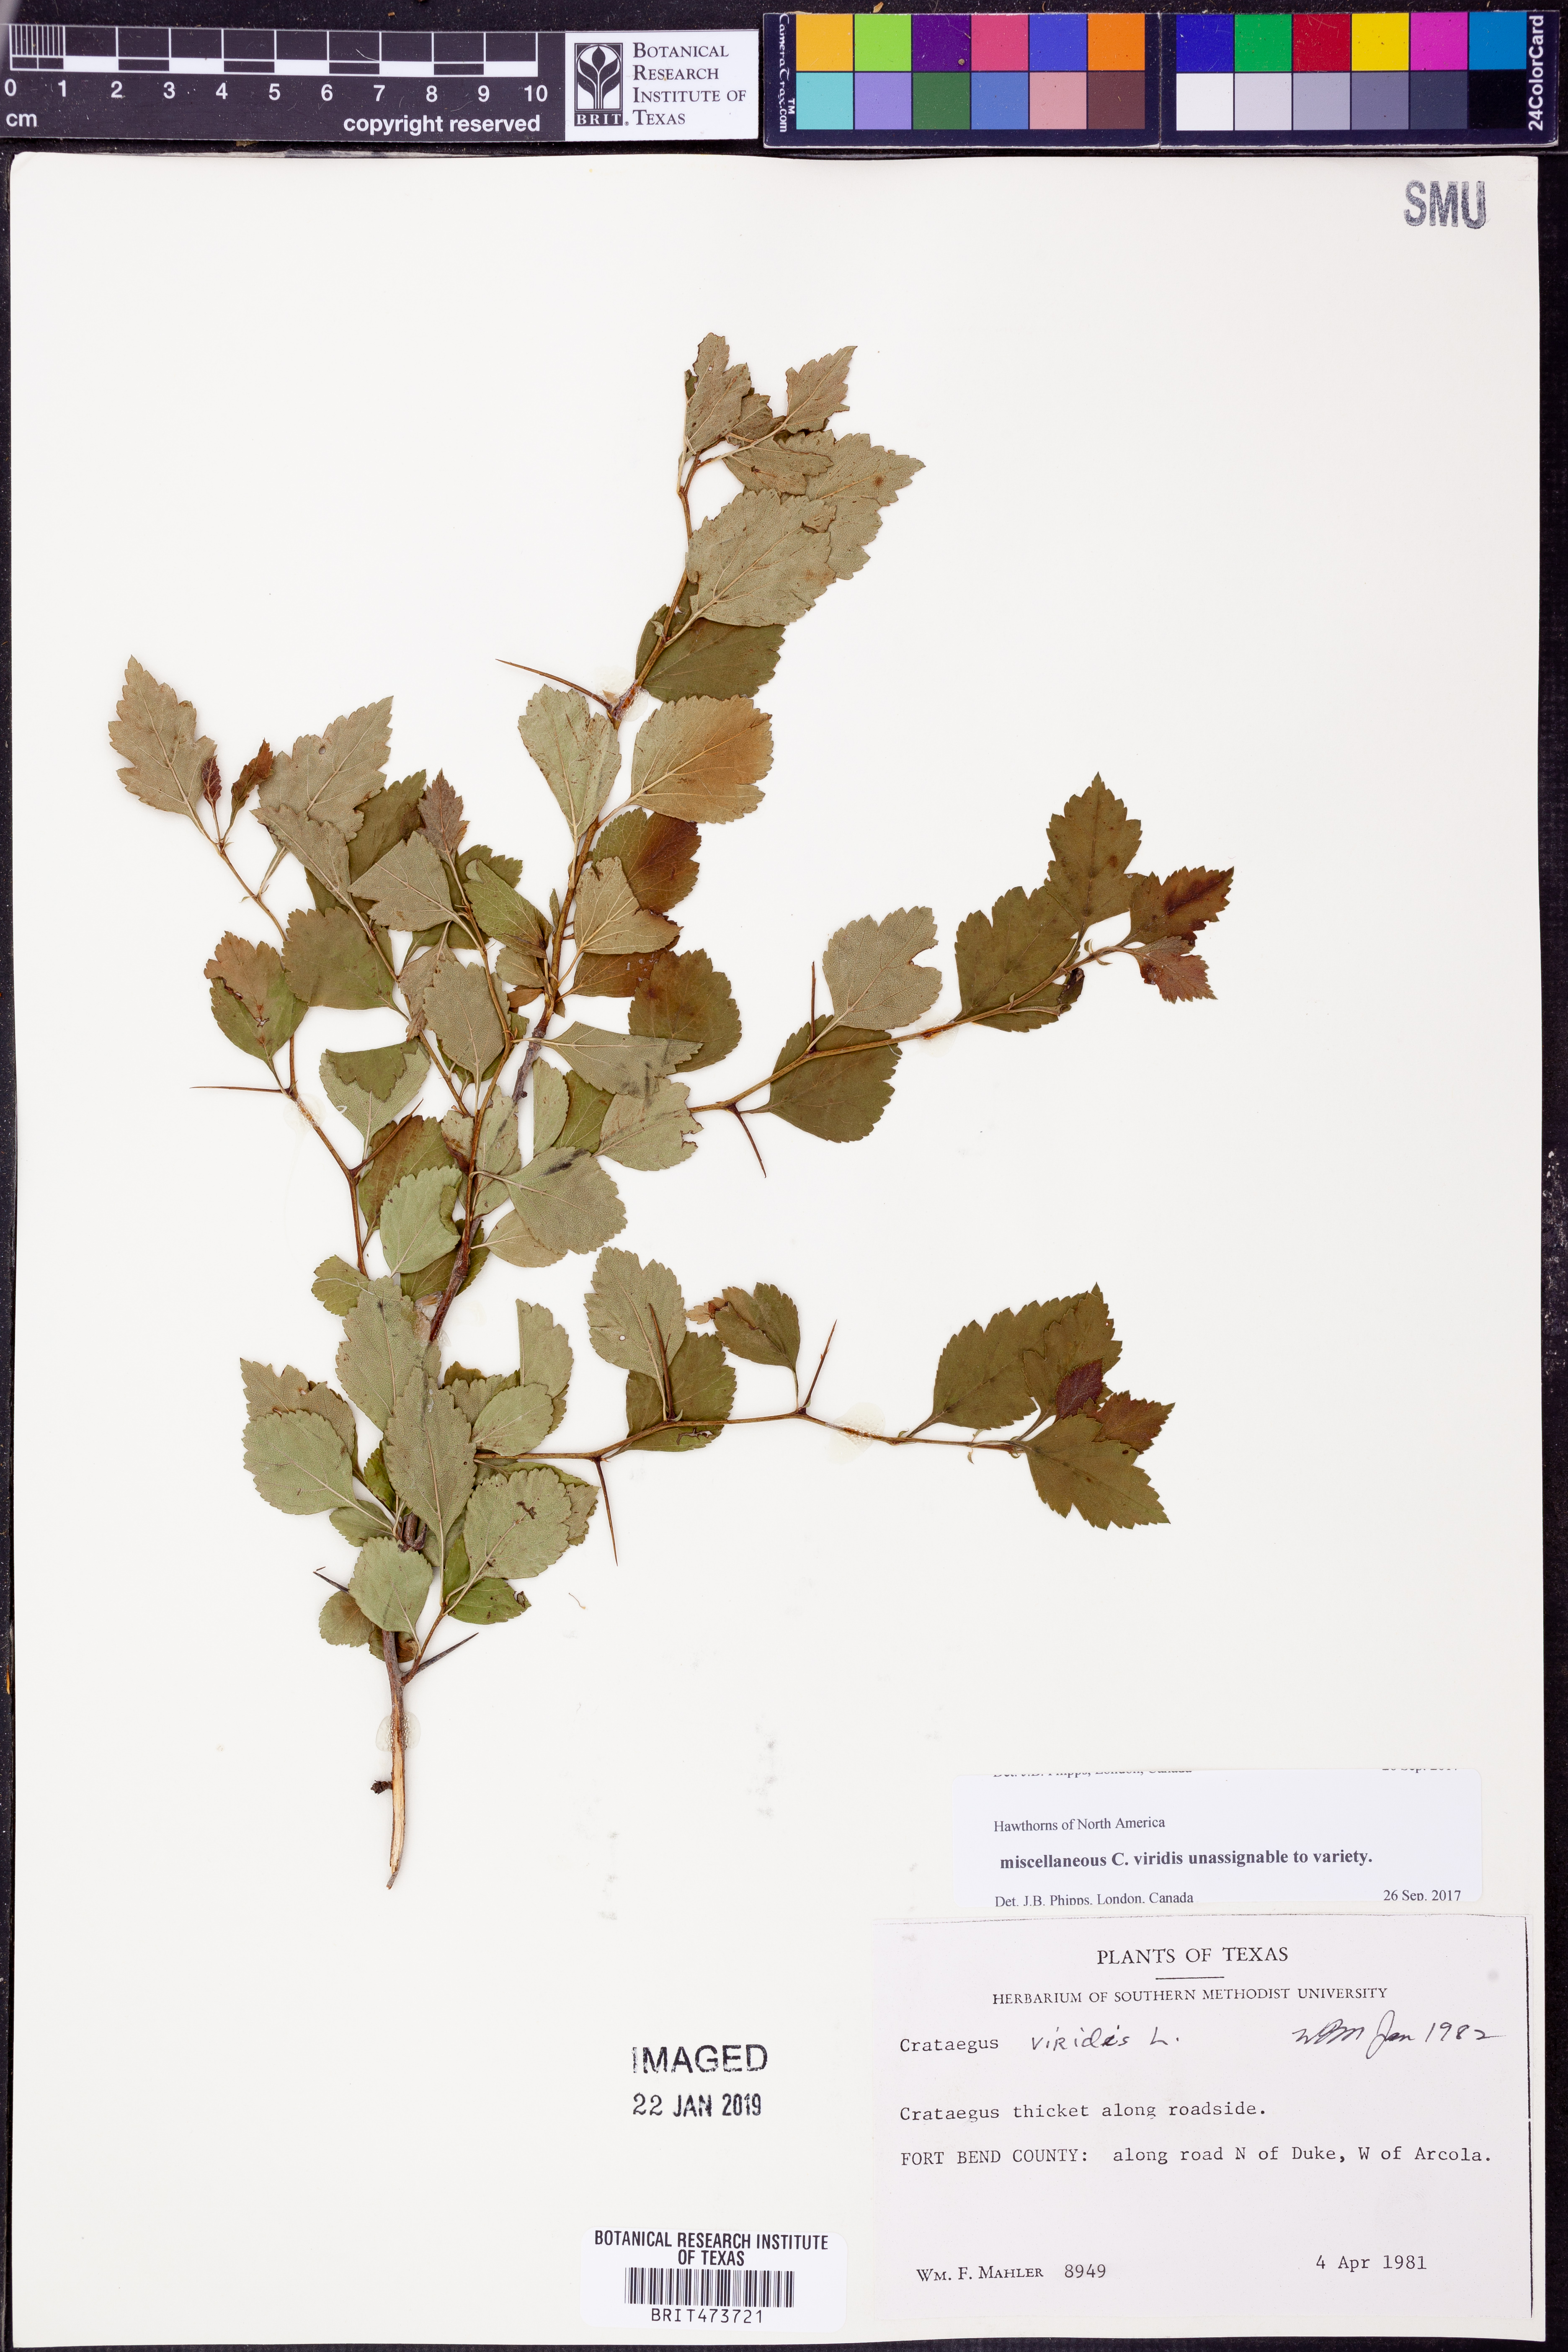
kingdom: Plantae
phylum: Tracheophyta
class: Magnoliopsida
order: Rosales
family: Rosaceae
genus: Crataegus
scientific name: Crataegus viridis
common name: Southernthorn
